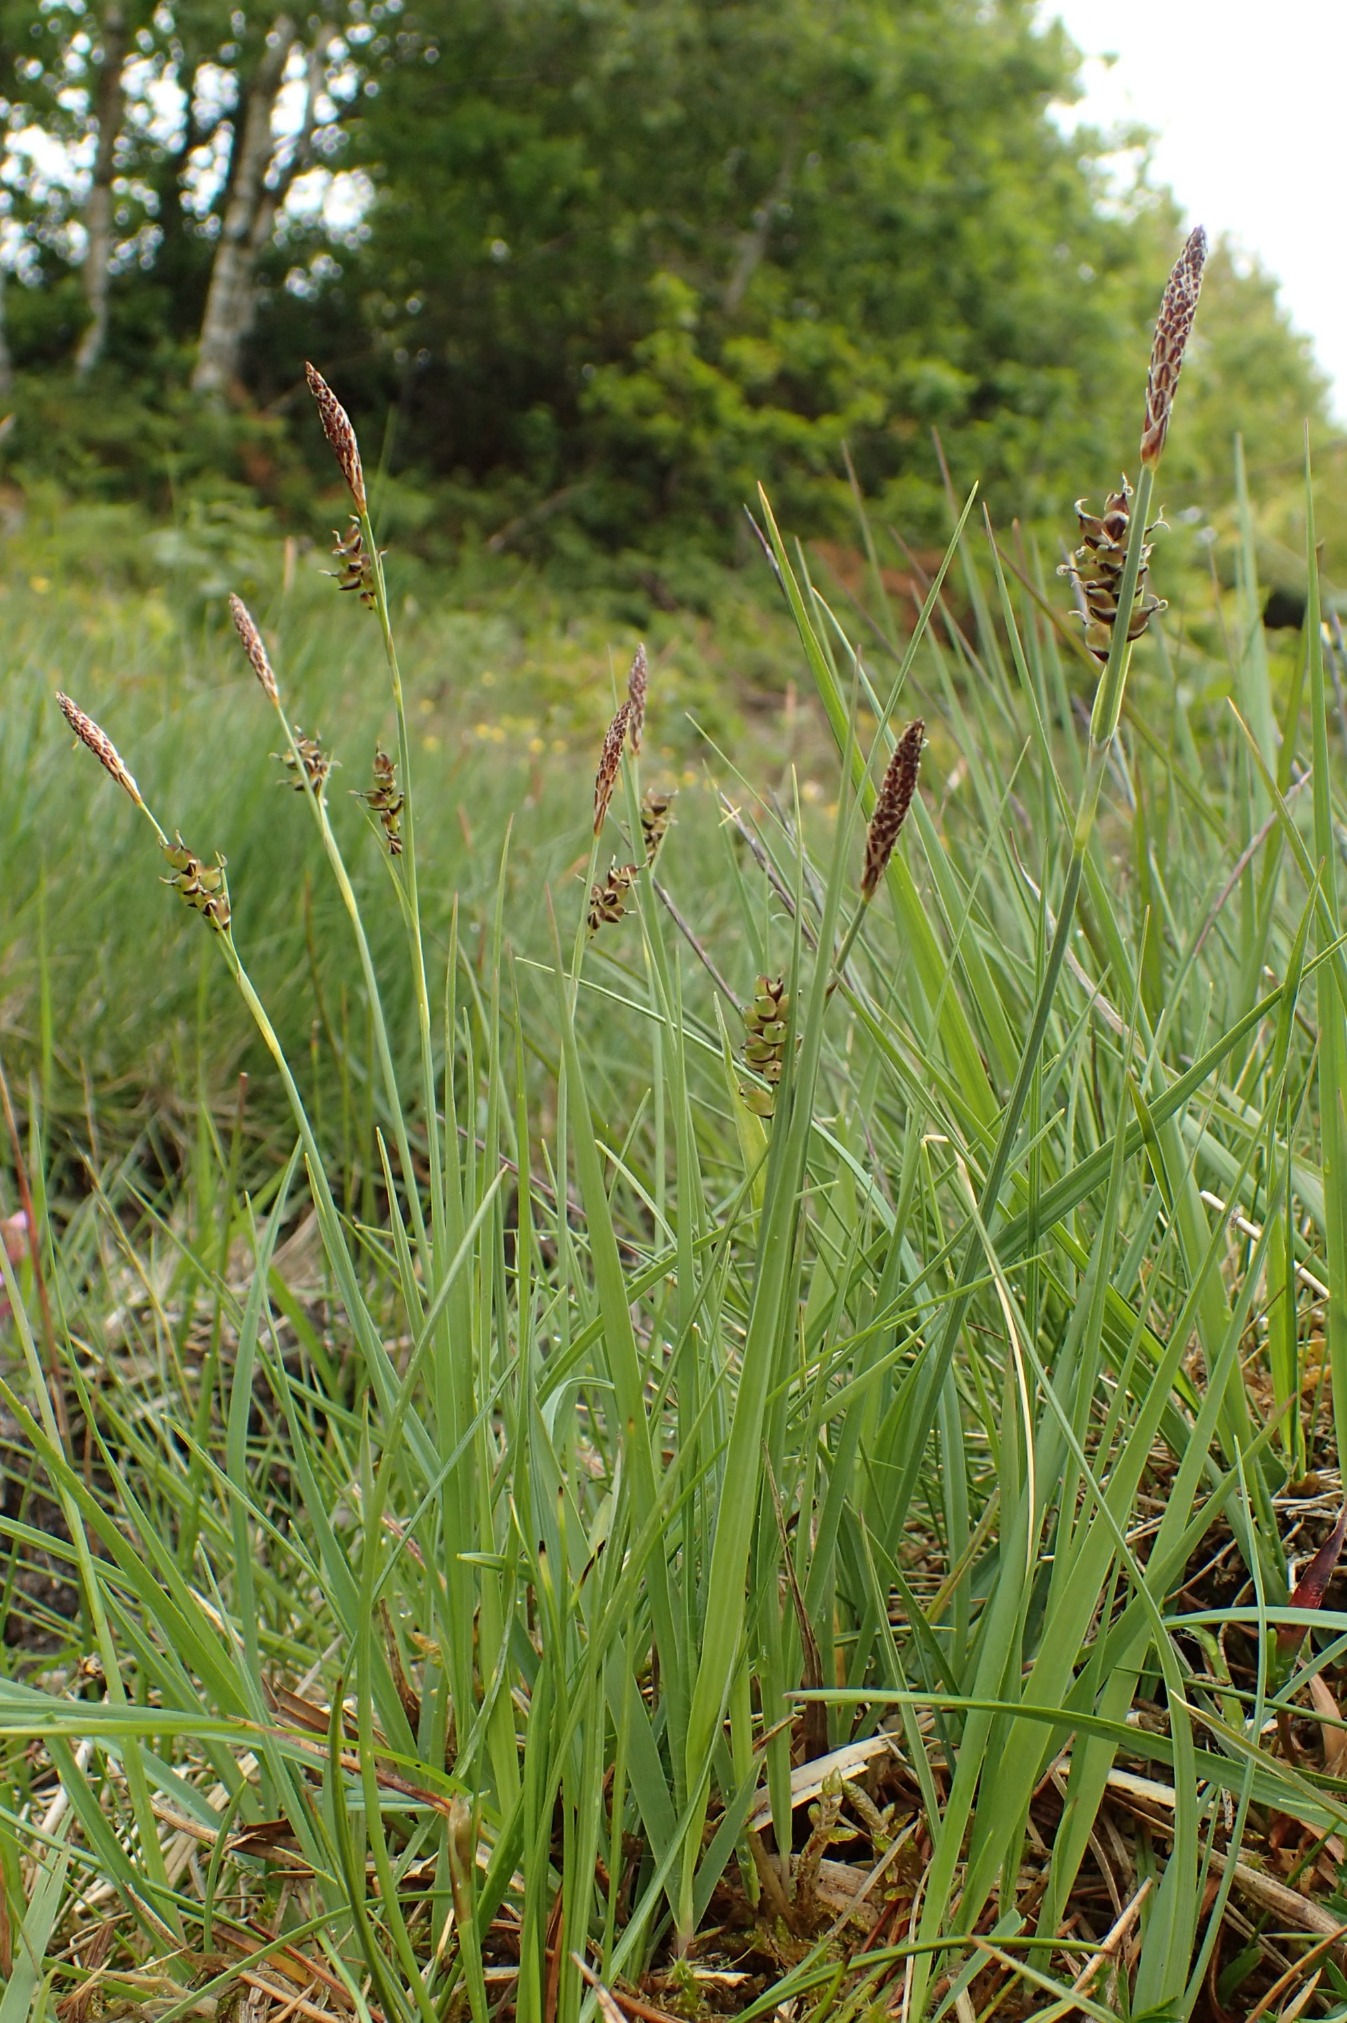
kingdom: Plantae
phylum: Tracheophyta
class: Liliopsida
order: Poales
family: Cyperaceae
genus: Carex
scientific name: Carex panicea
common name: Hirse-star
